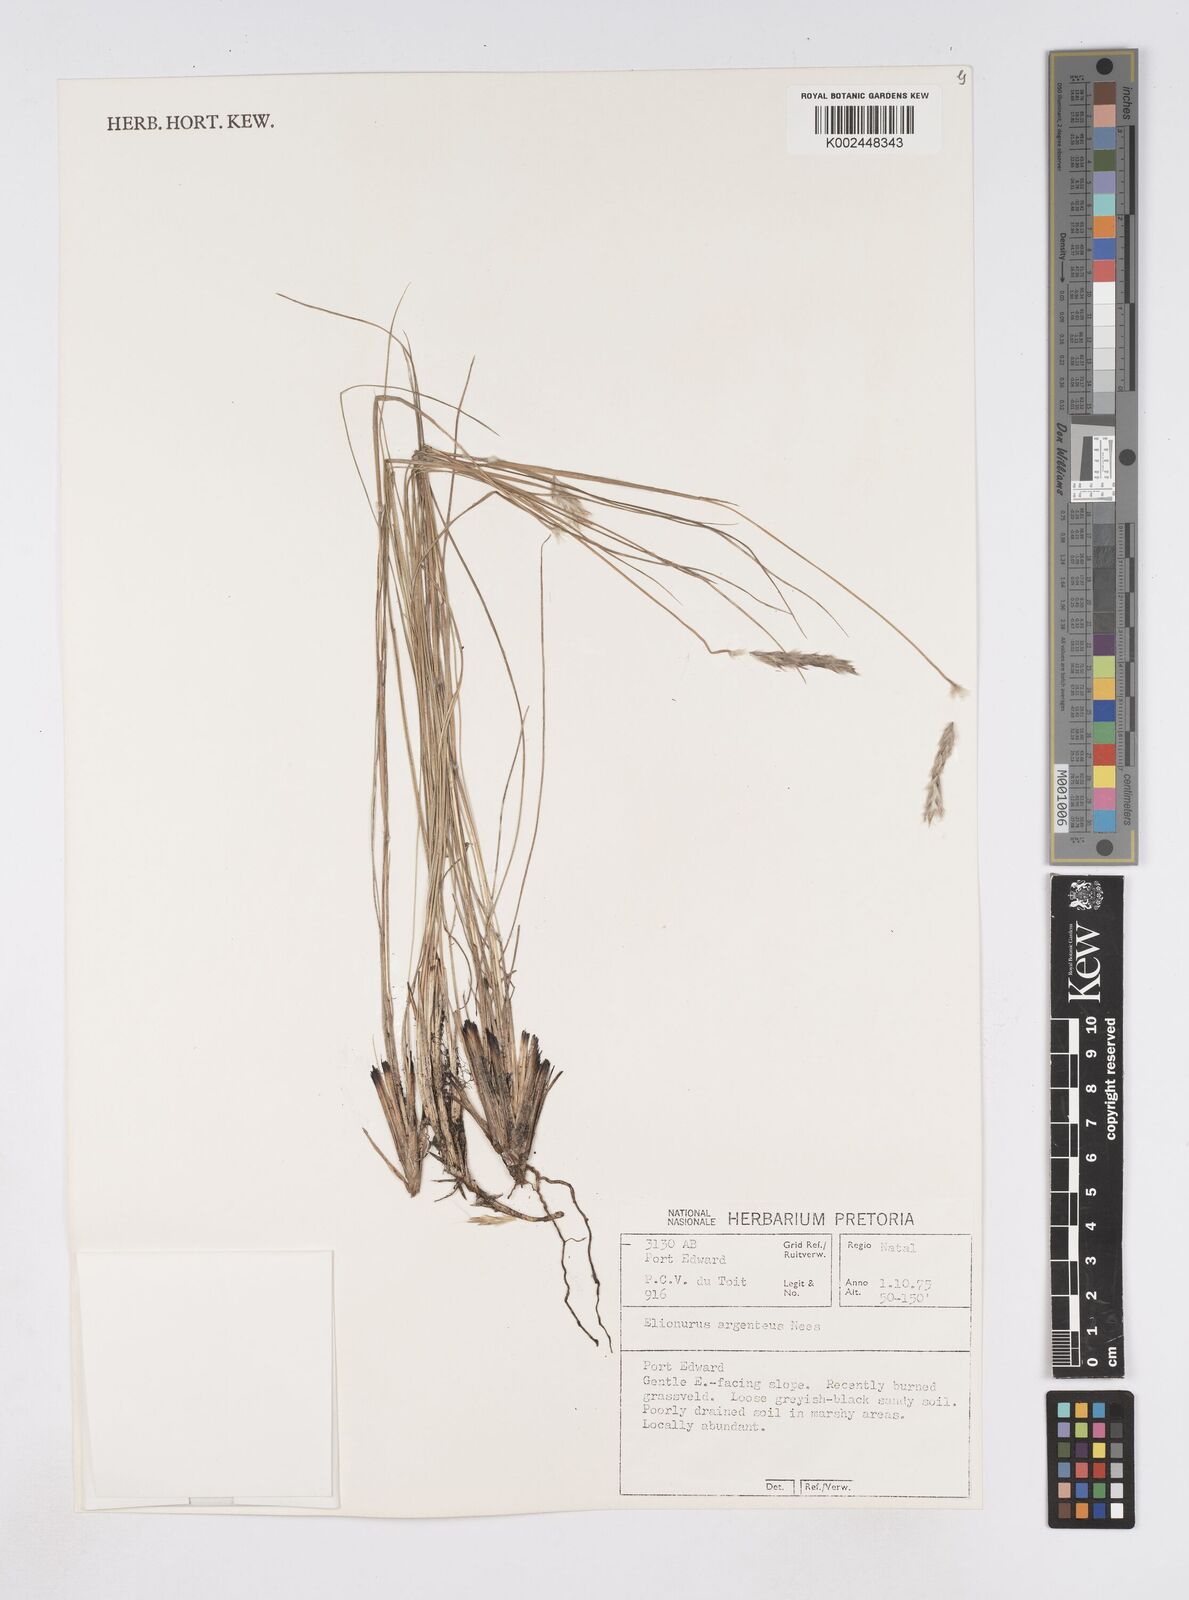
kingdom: Plantae
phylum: Tracheophyta
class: Liliopsida
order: Poales
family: Poaceae
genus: Elionurus
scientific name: Elionurus muticus
